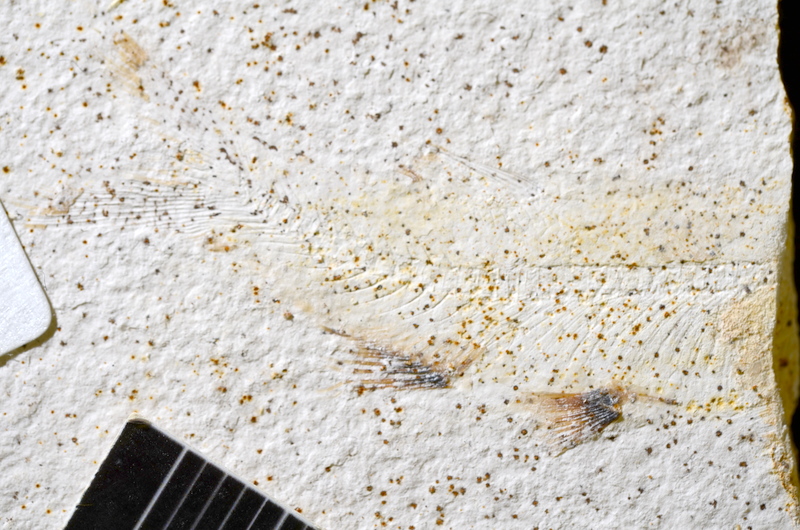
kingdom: Animalia
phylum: Chordata
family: Ascalaboidae
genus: Ebertichthys
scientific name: Ebertichthys ettlingensis
